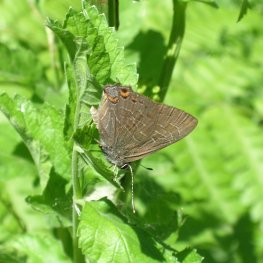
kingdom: Animalia
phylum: Arthropoda
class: Insecta
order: Lepidoptera
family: Lycaenidae
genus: Satyrium
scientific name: Satyrium liparops
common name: Striped Hairstreak
